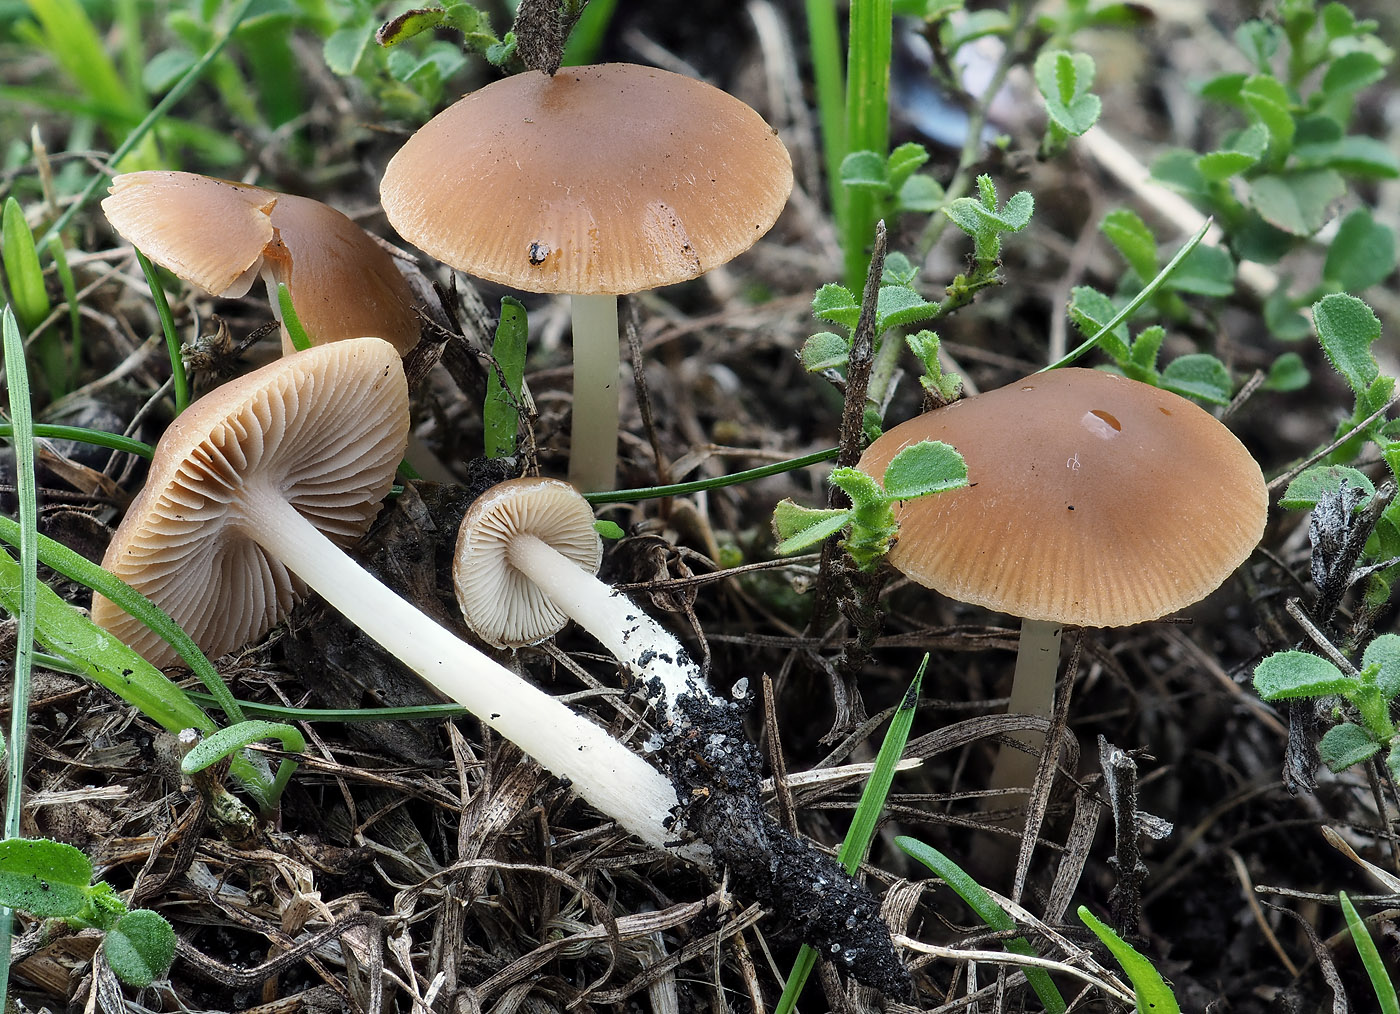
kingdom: Fungi
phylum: Basidiomycota
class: Agaricomycetes
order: Agaricales
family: Psathyrellaceae
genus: Psathyrella
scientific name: Psathyrella clivensis
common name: eng-mørkhat
